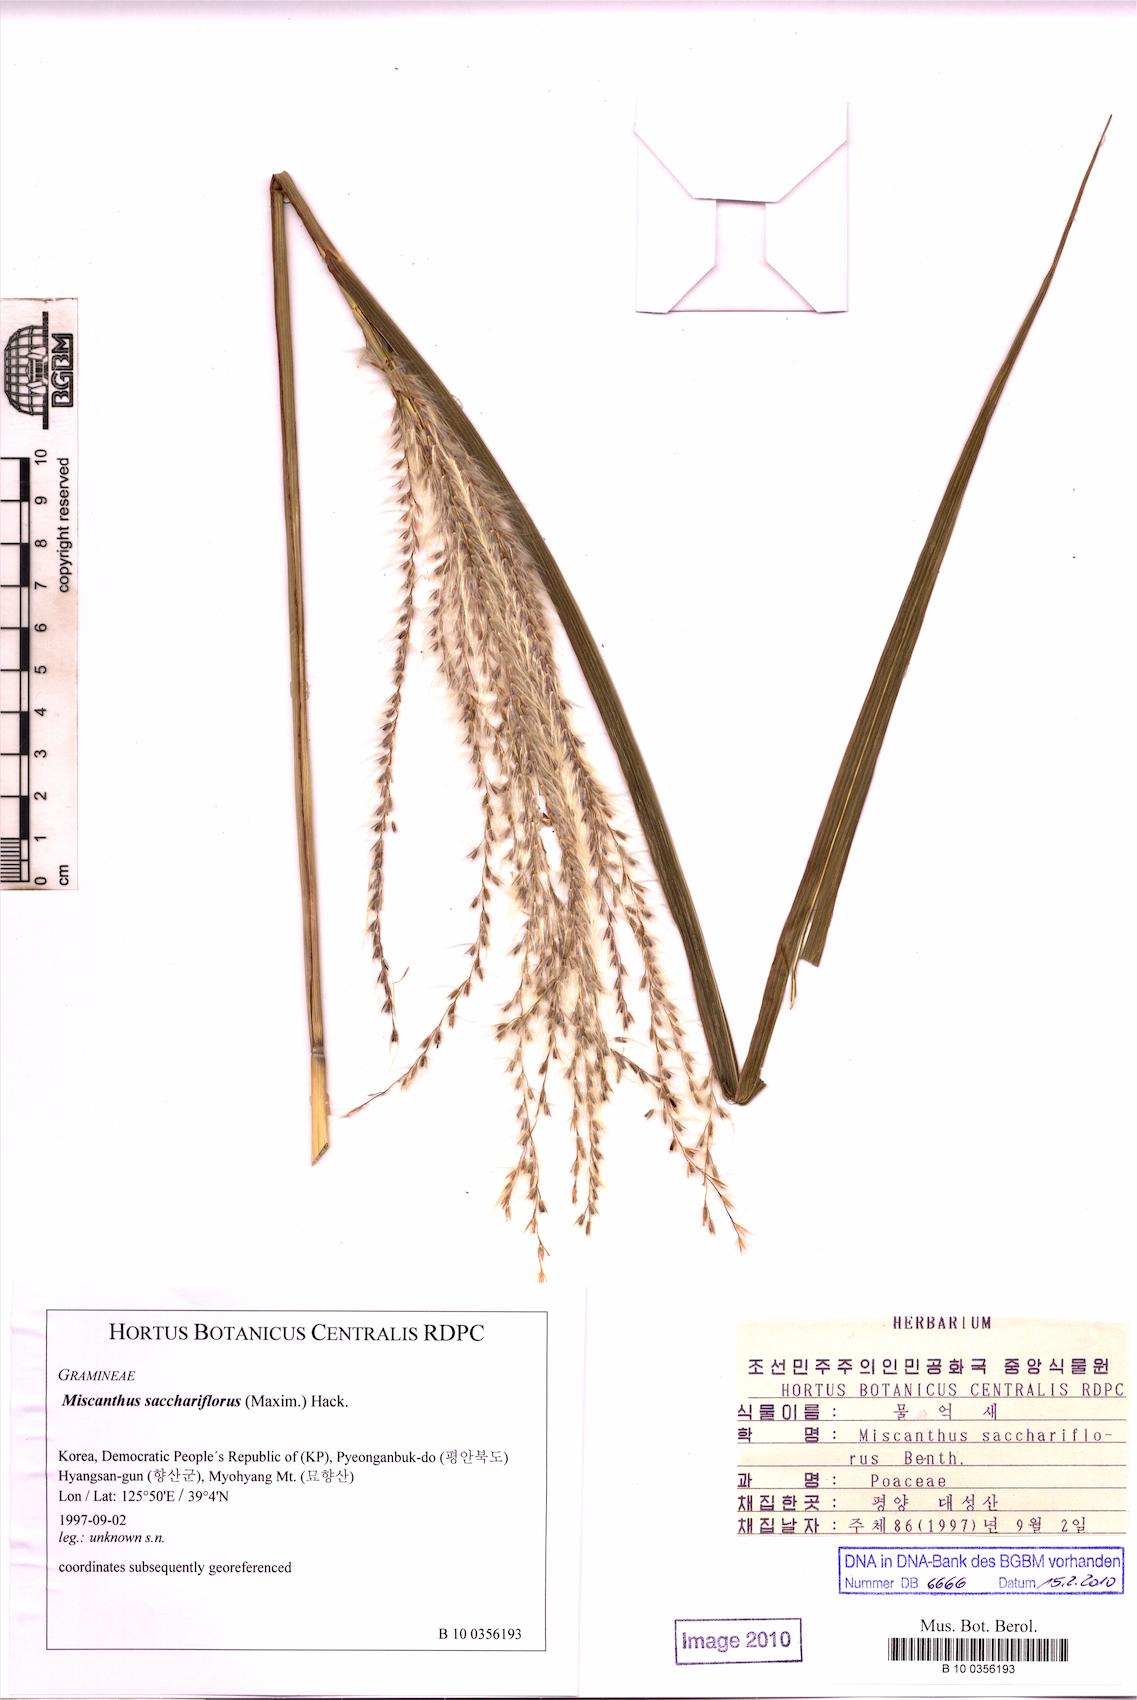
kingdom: Plantae
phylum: Tracheophyta
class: Liliopsida
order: Poales
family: Poaceae
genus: Miscanthus
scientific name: Miscanthus sacchariflorus
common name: Amur silver grass
